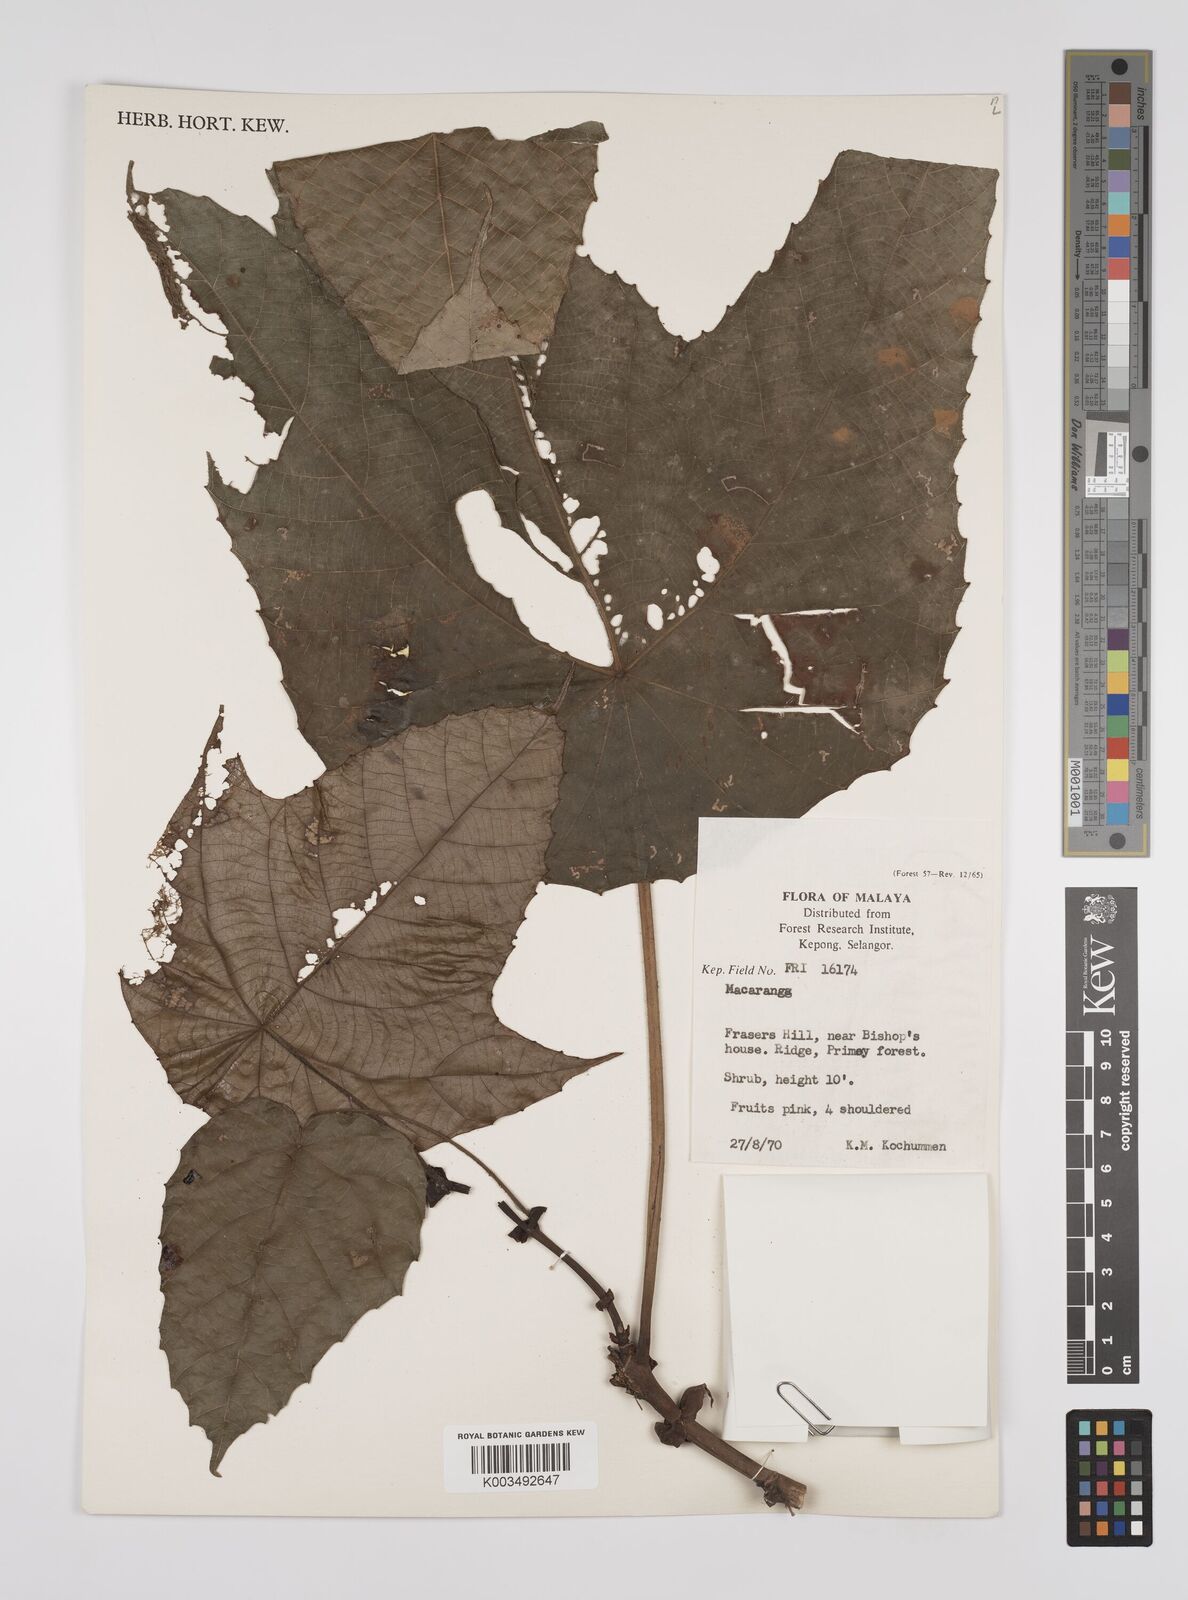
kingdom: Plantae
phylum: Tracheophyta
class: Magnoliopsida
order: Malpighiales
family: Euphorbiaceae
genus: Macaranga
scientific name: Macaranga
